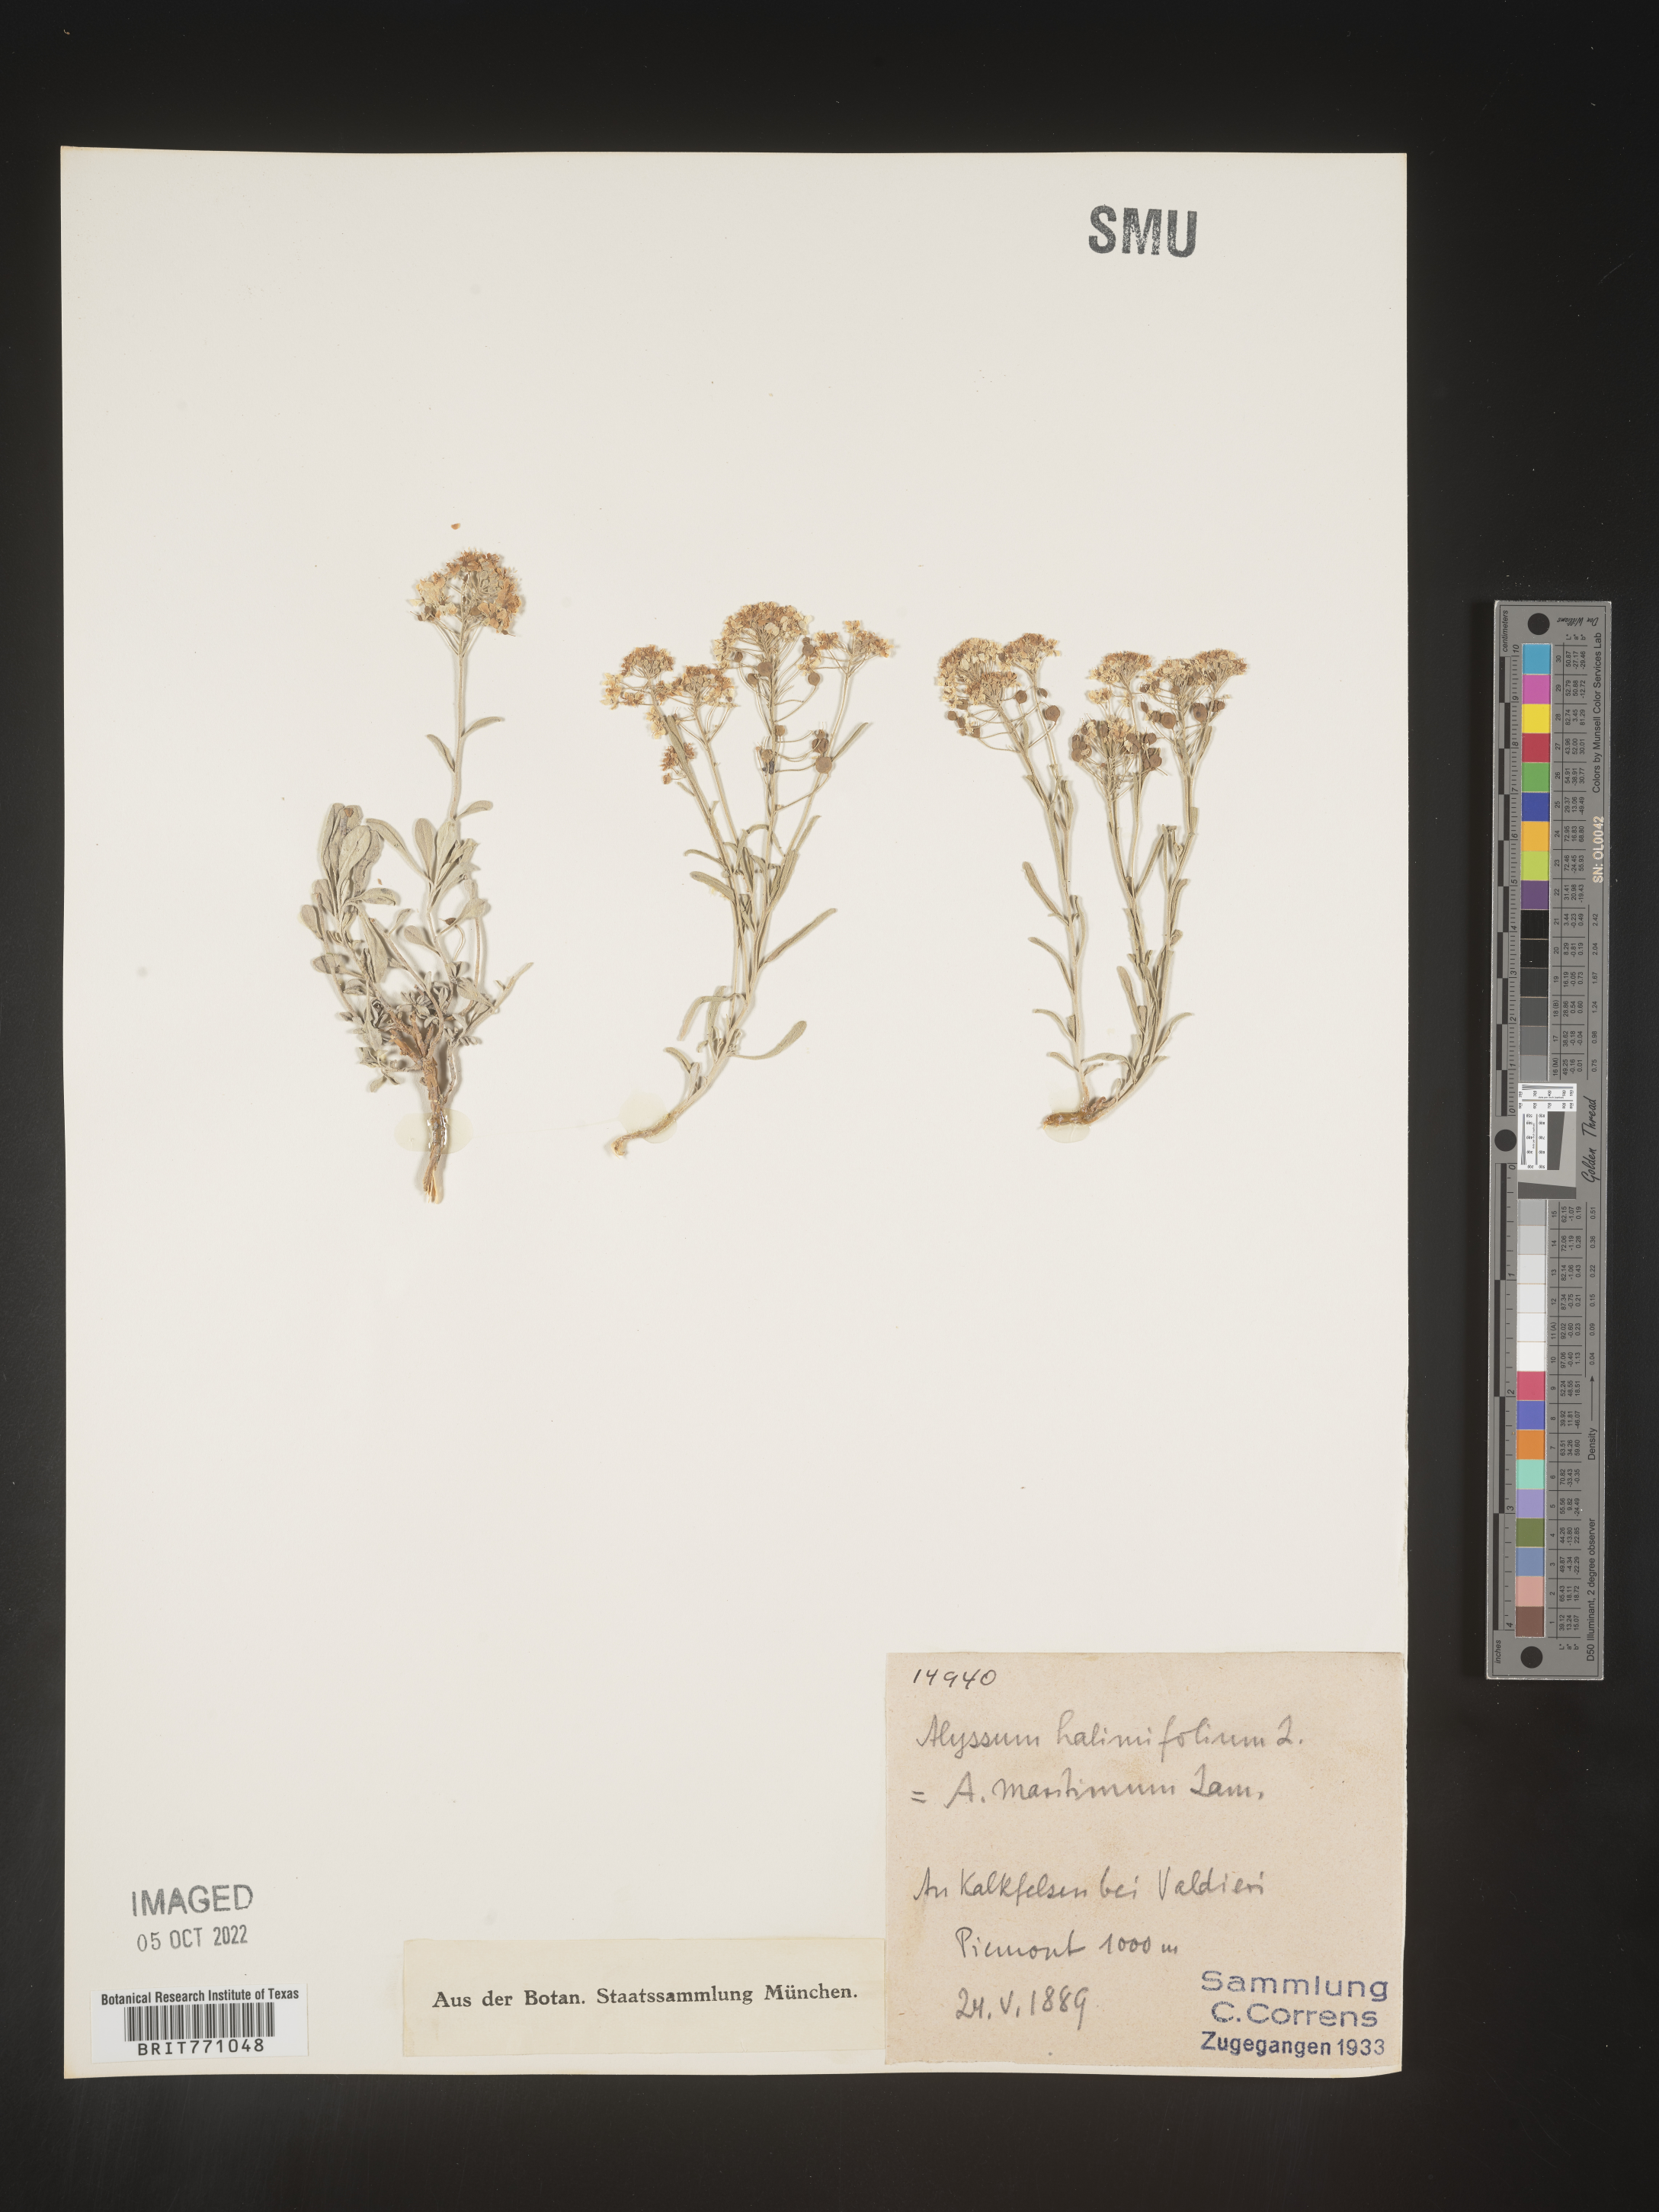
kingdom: Plantae
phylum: Tracheophyta
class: Magnoliopsida
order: Brassicales
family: Brassicaceae
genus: Alyssum
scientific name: Alyssum
